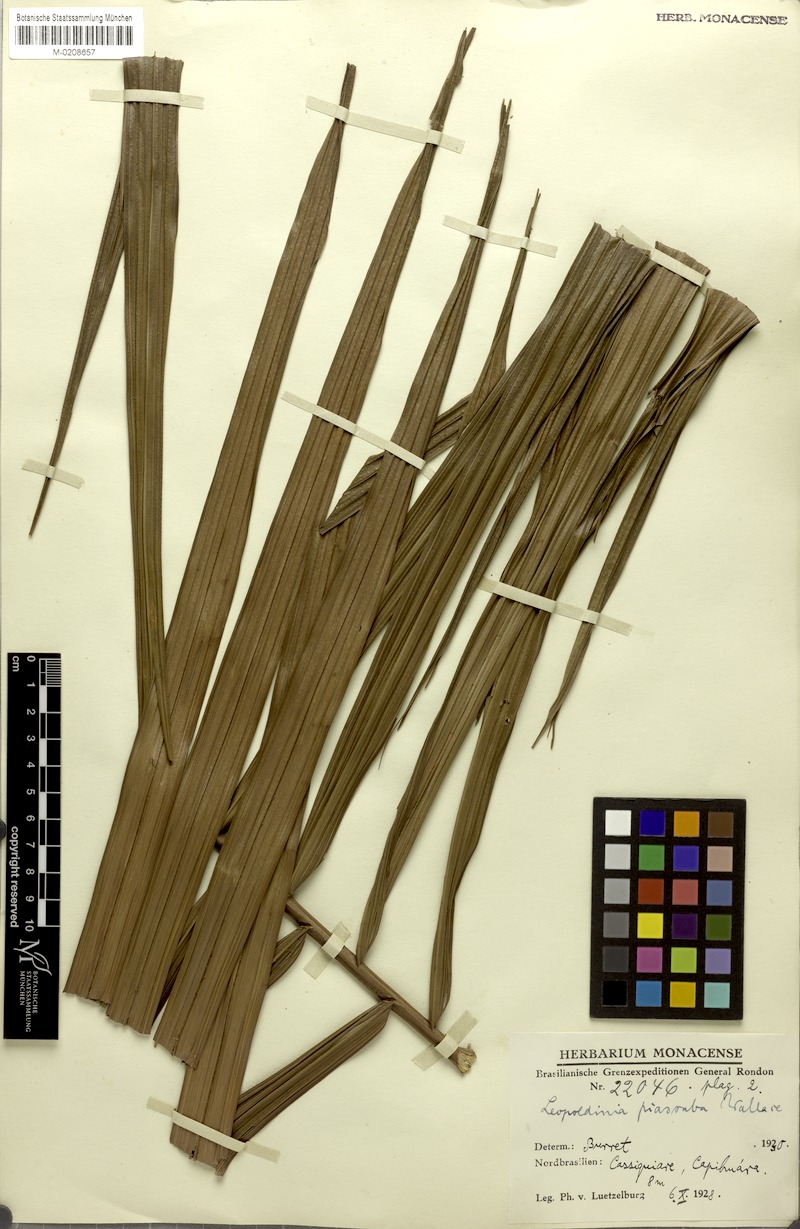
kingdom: Plantae
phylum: Tracheophyta
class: Liliopsida
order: Arecales
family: Arecaceae
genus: Leopoldinia
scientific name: Leopoldinia piassaba
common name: Piassaba
